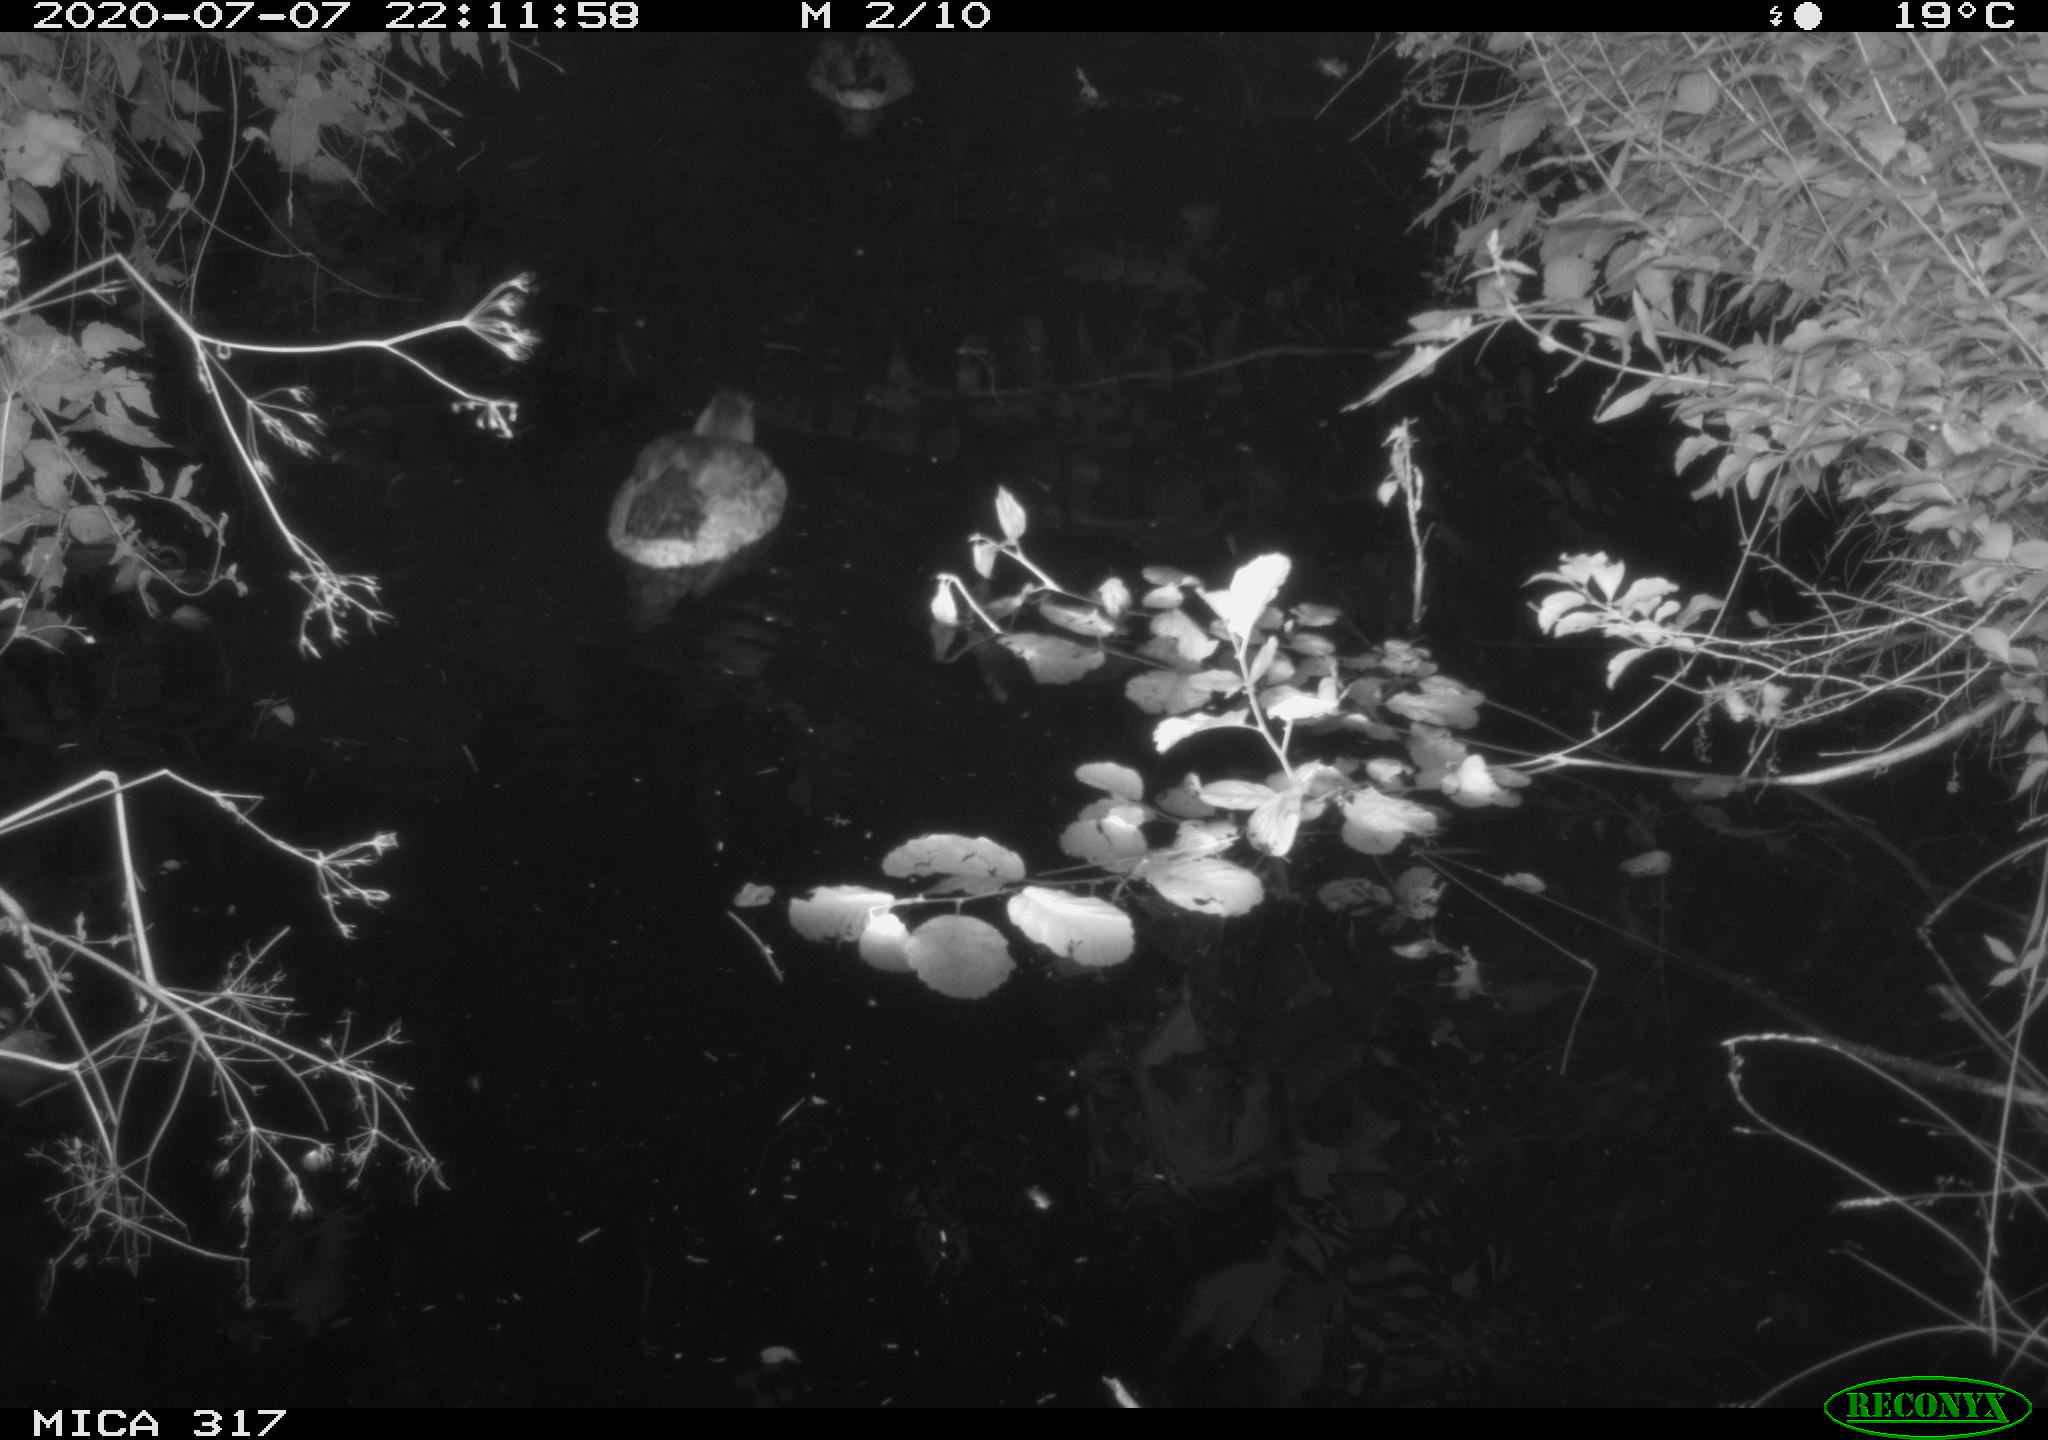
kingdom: Animalia
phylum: Chordata
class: Aves
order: Anseriformes
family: Anatidae
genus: Anas
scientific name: Anas platyrhynchos
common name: Mallard
